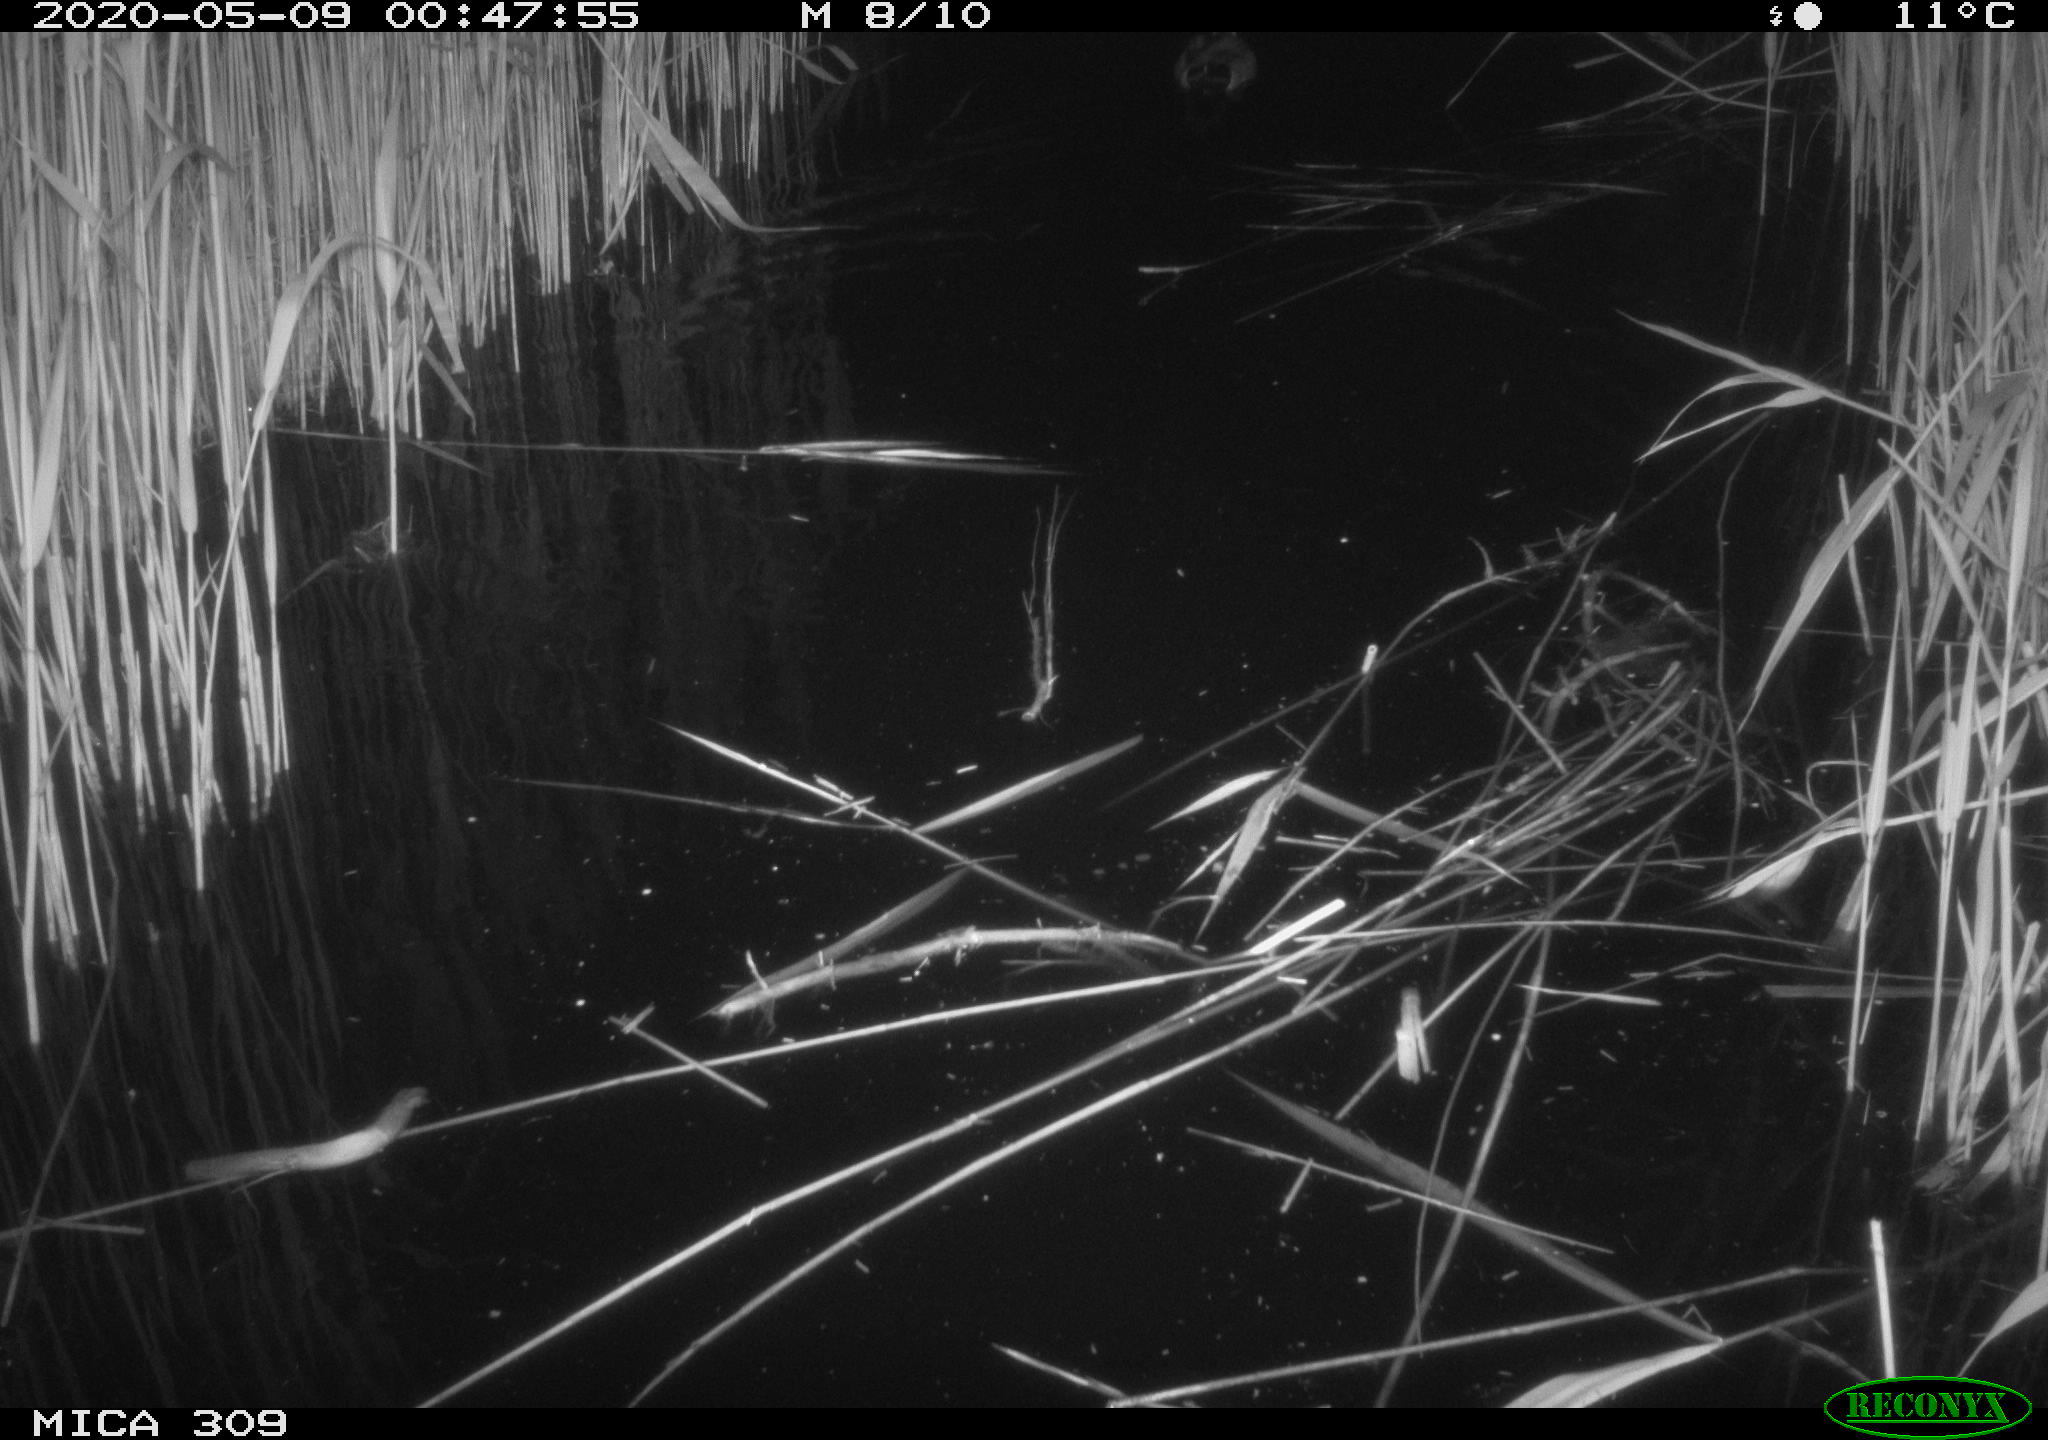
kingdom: Animalia
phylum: Chordata
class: Aves
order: Anseriformes
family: Anatidae
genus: Anas
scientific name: Anas platyrhynchos
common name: Mallard
